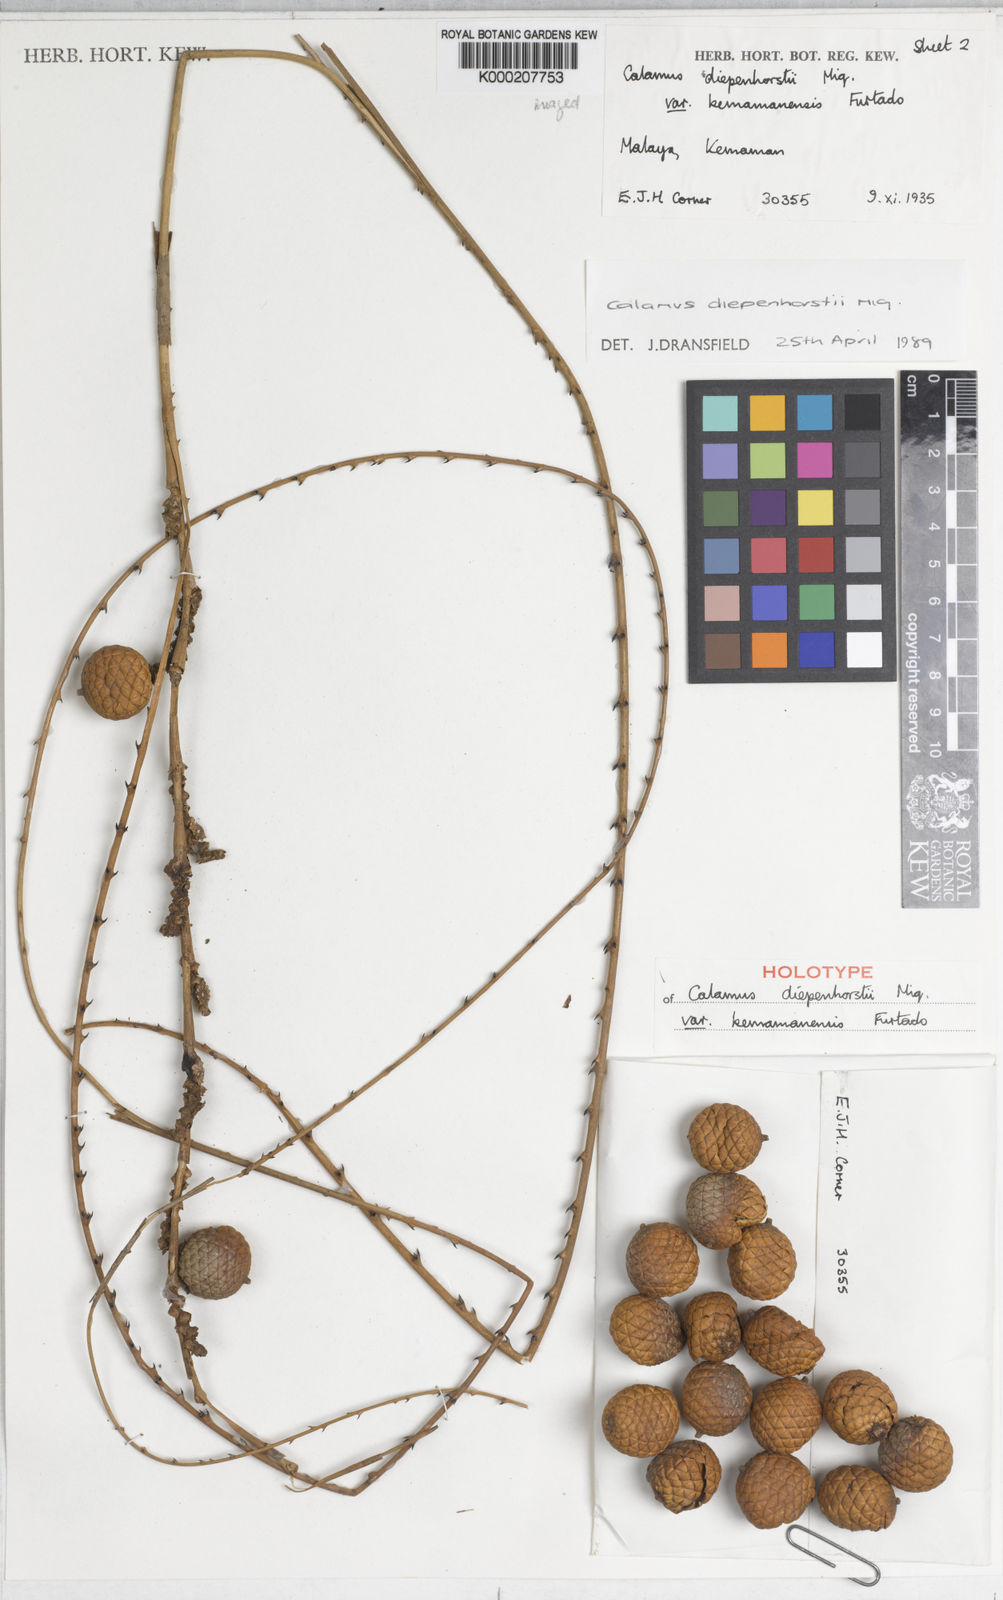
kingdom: Plantae
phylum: Tracheophyta
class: Liliopsida
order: Arecales
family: Arecaceae
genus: Calamus
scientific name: Calamus diepenhorstii
